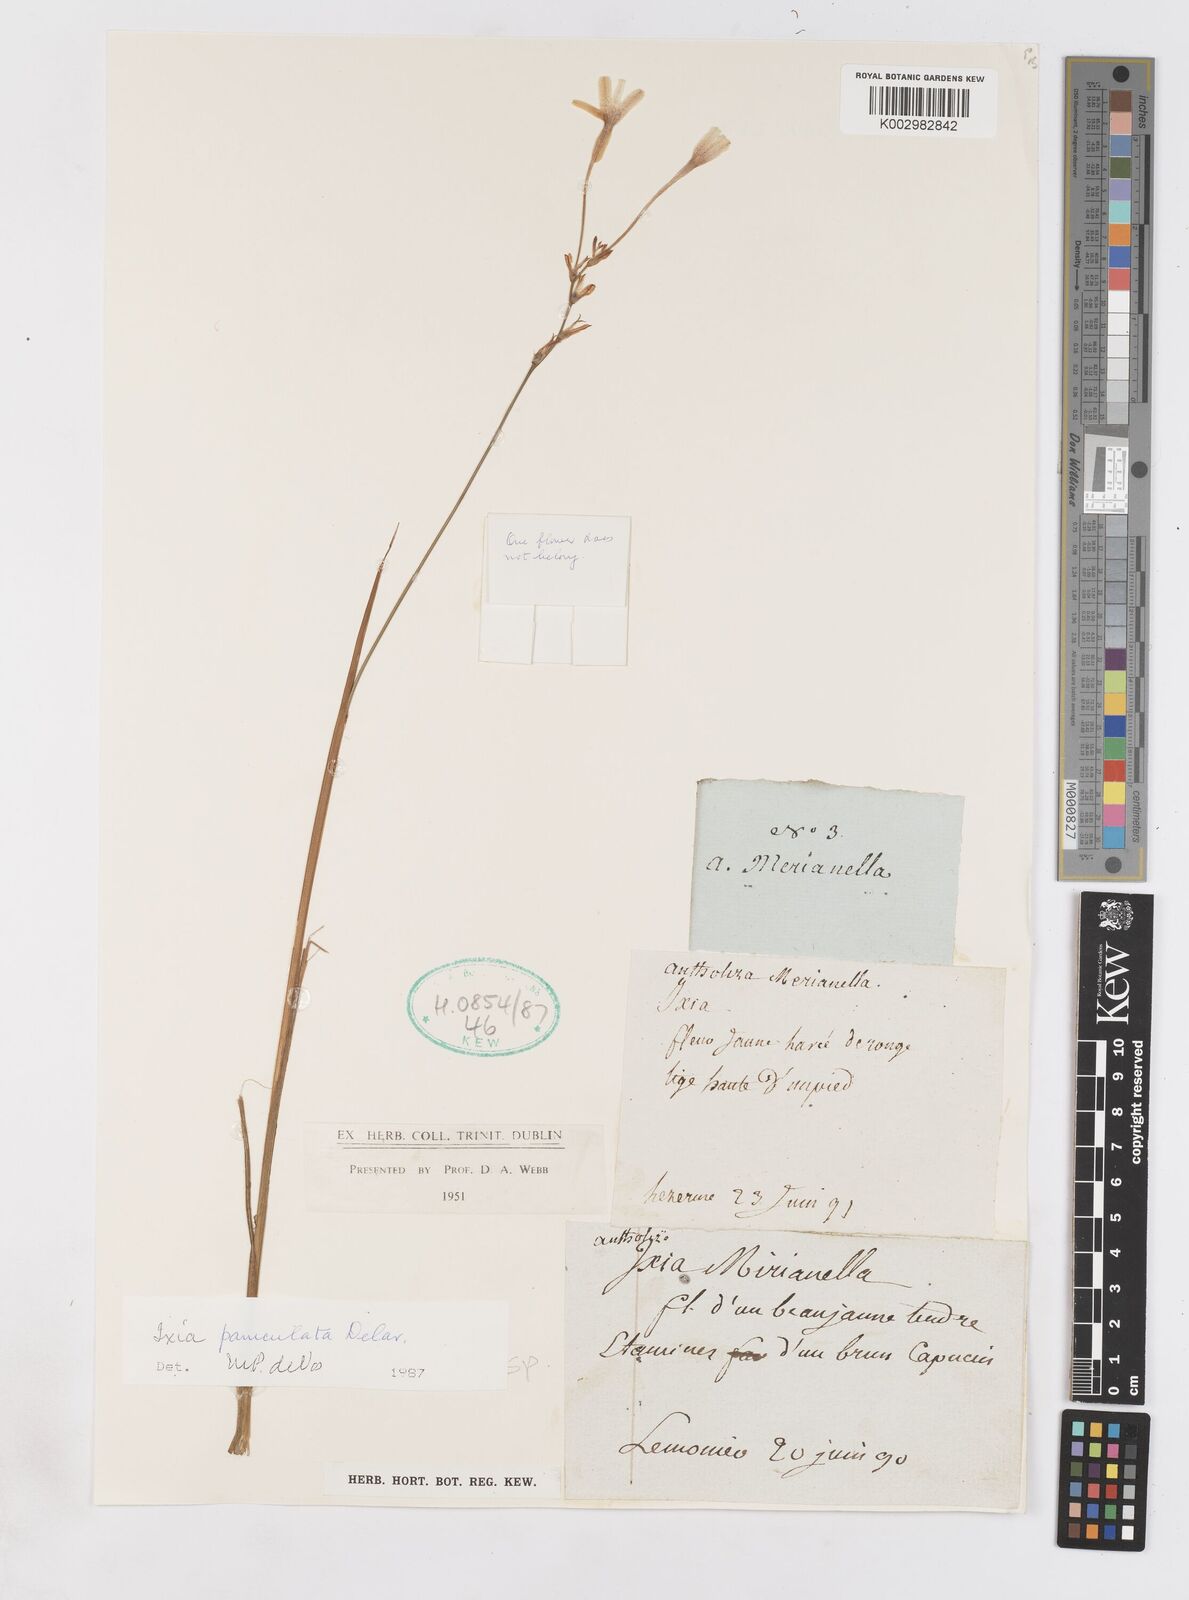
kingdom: Plantae
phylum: Tracheophyta
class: Liliopsida
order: Asparagales
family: Iridaceae
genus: Ixia
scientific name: Ixia paniculata
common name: Tubular corn-lily
